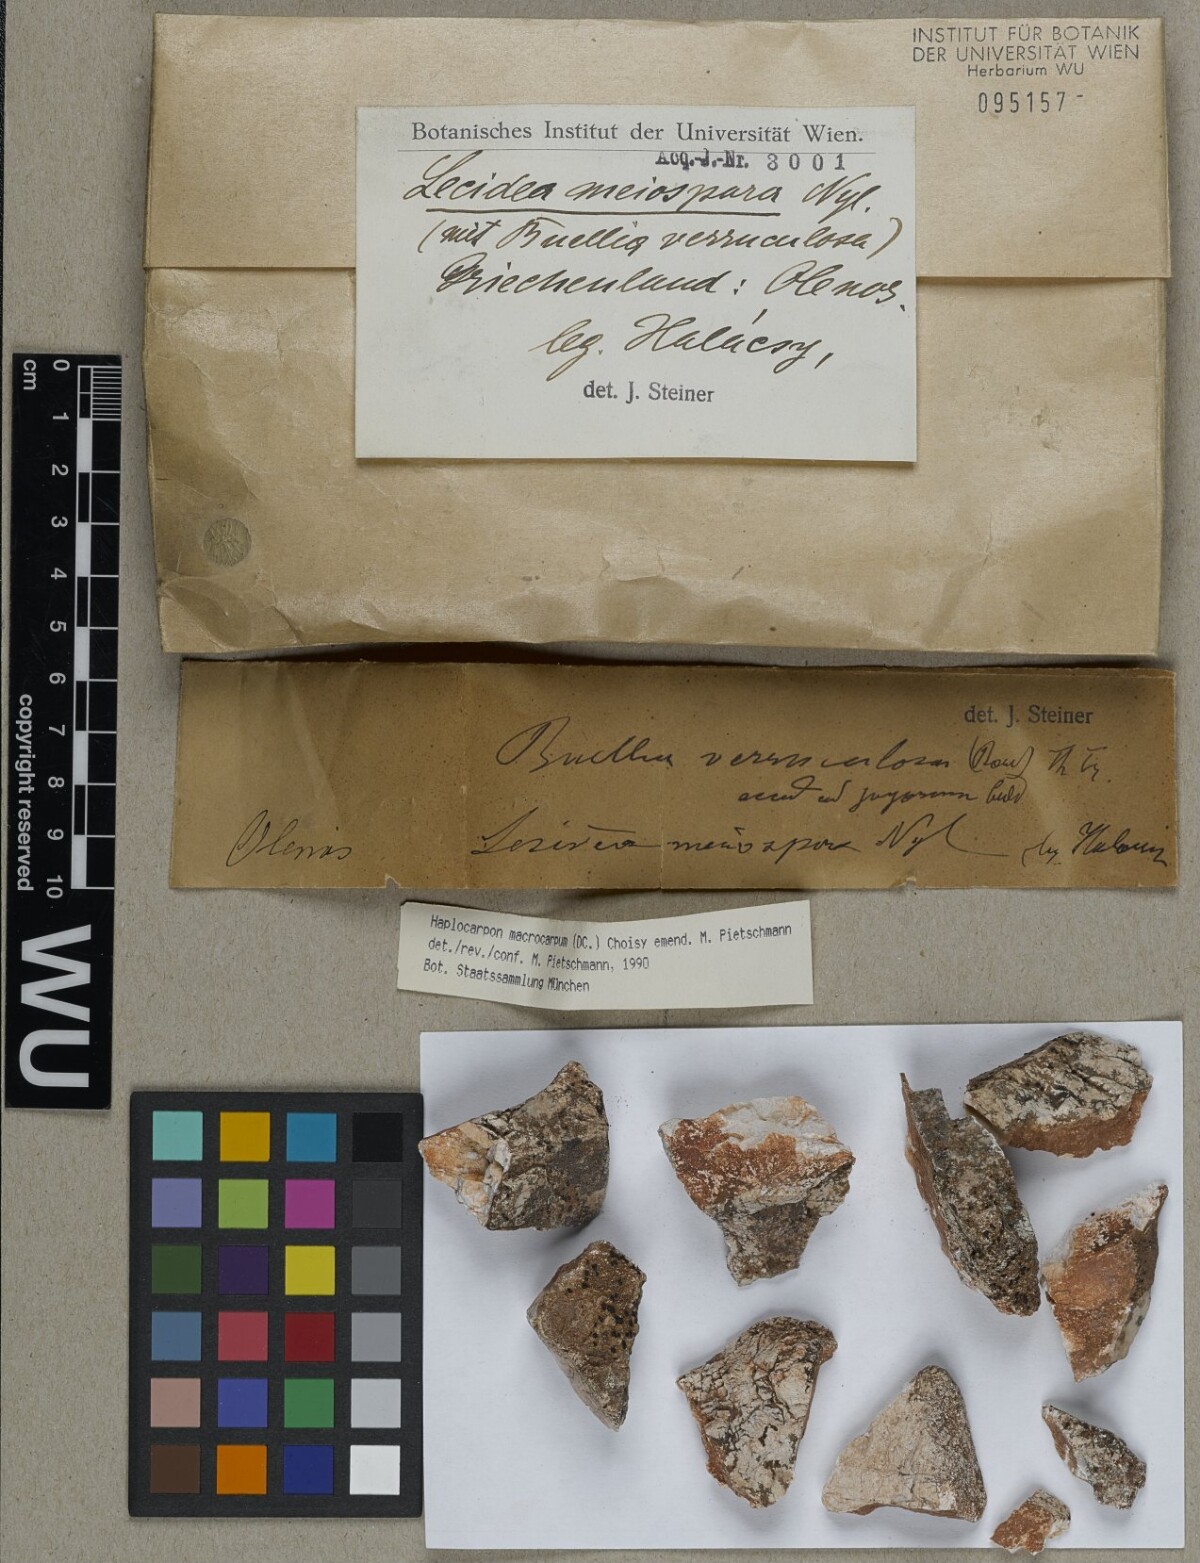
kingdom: Fungi
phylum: Ascomycota
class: Lecanoromycetes
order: Lecideales
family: Lecideaceae
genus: Porpidia
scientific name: Porpidia macrocarpa
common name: Common boulder lichen
